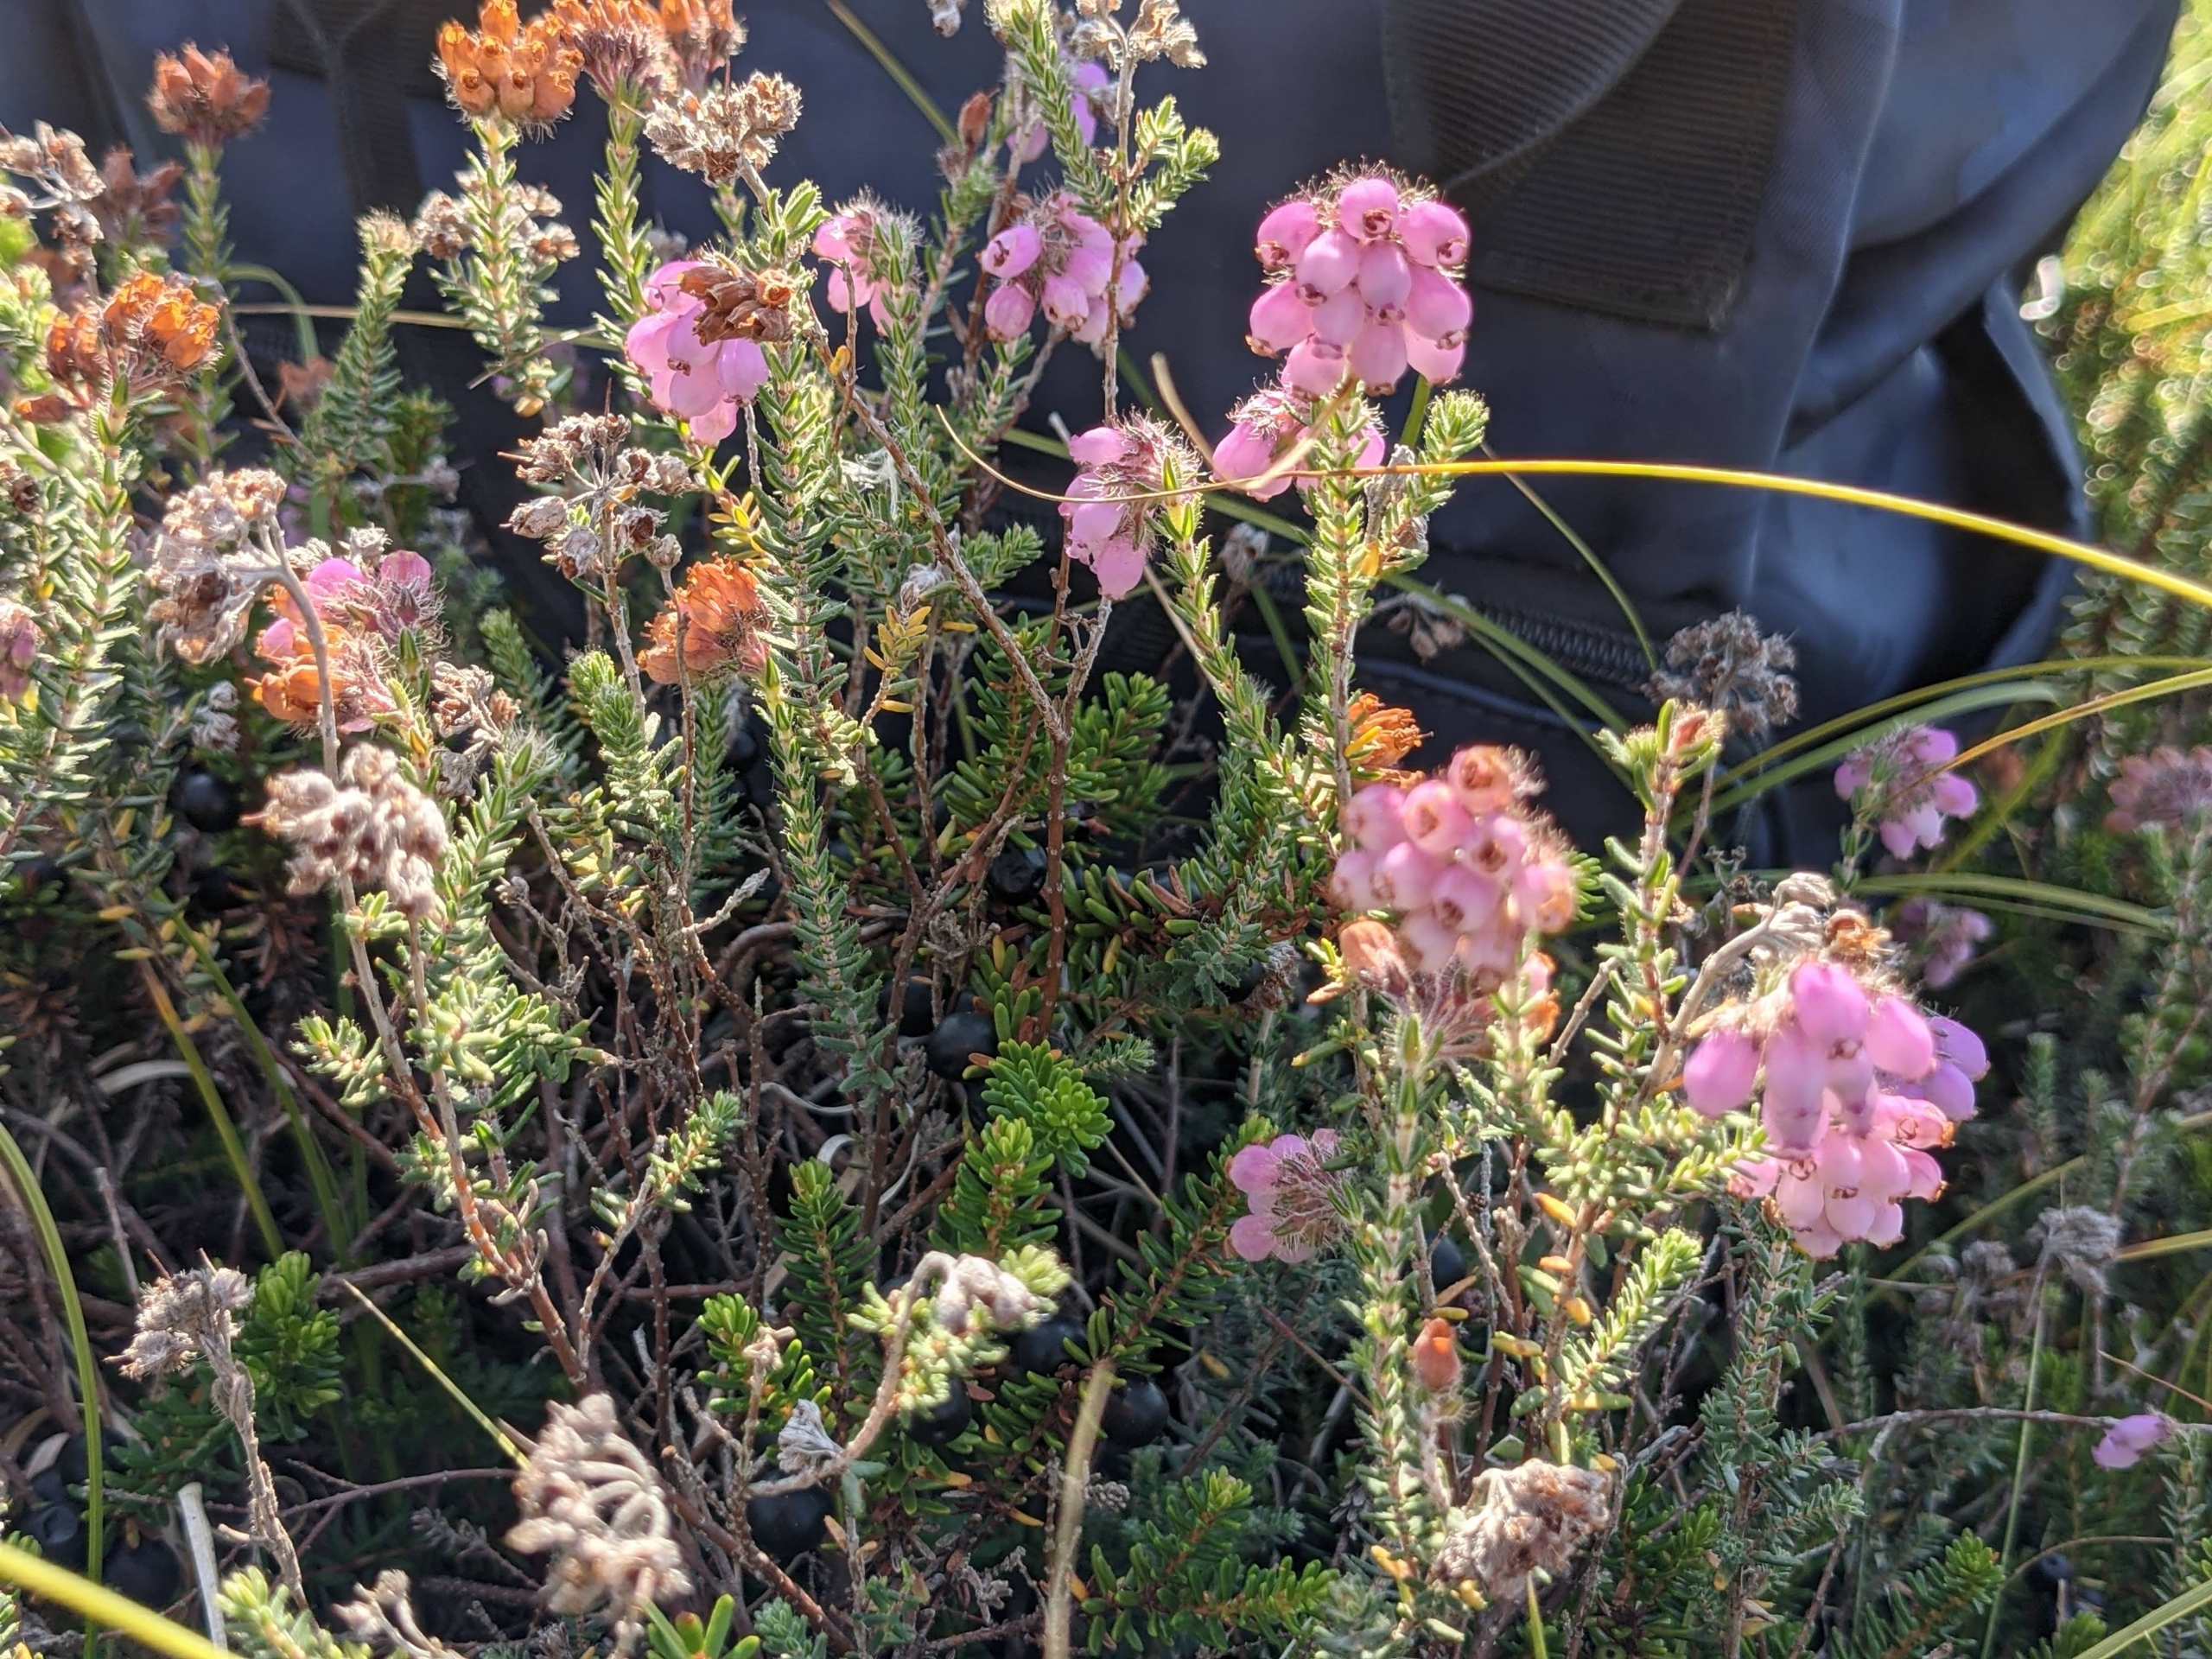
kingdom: Plantae
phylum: Tracheophyta
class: Magnoliopsida
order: Ericales
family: Ericaceae
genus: Erica
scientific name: Erica tetralix
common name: Klokkelyng
